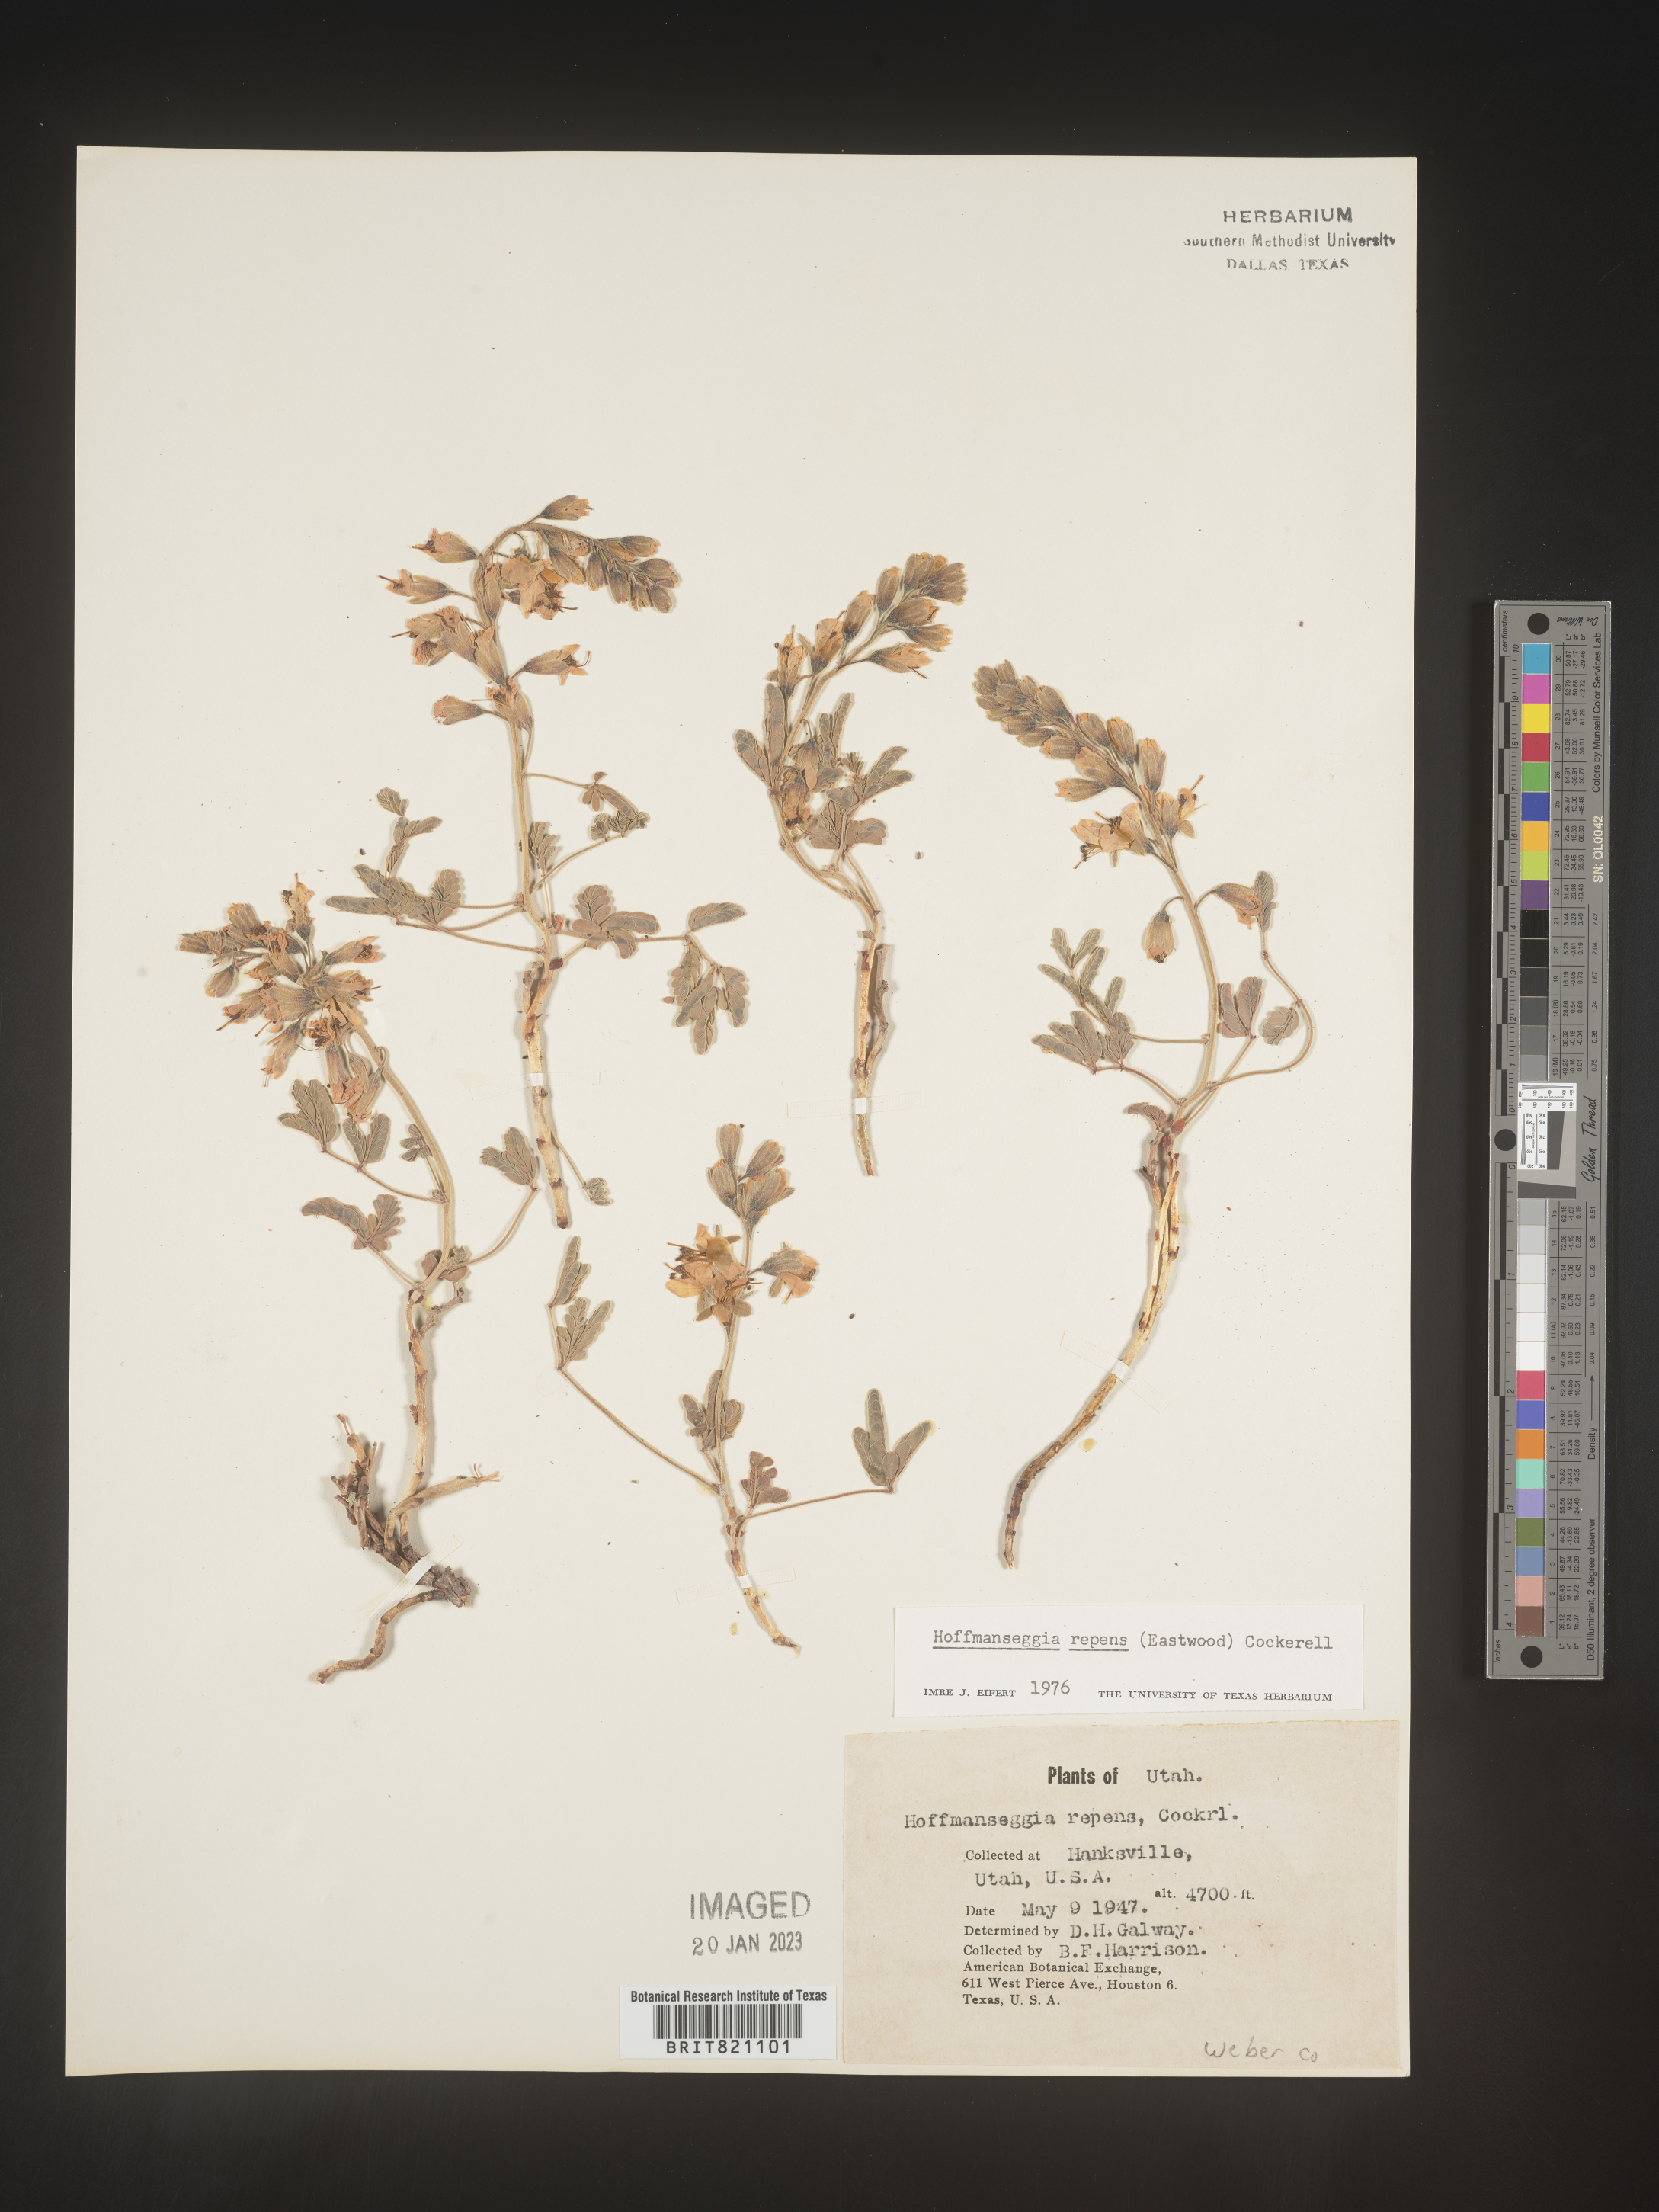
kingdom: Plantae
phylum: Tracheophyta
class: Magnoliopsida
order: Fabales
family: Fabaceae
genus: Hoffmannseggia
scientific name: Hoffmannseggia
